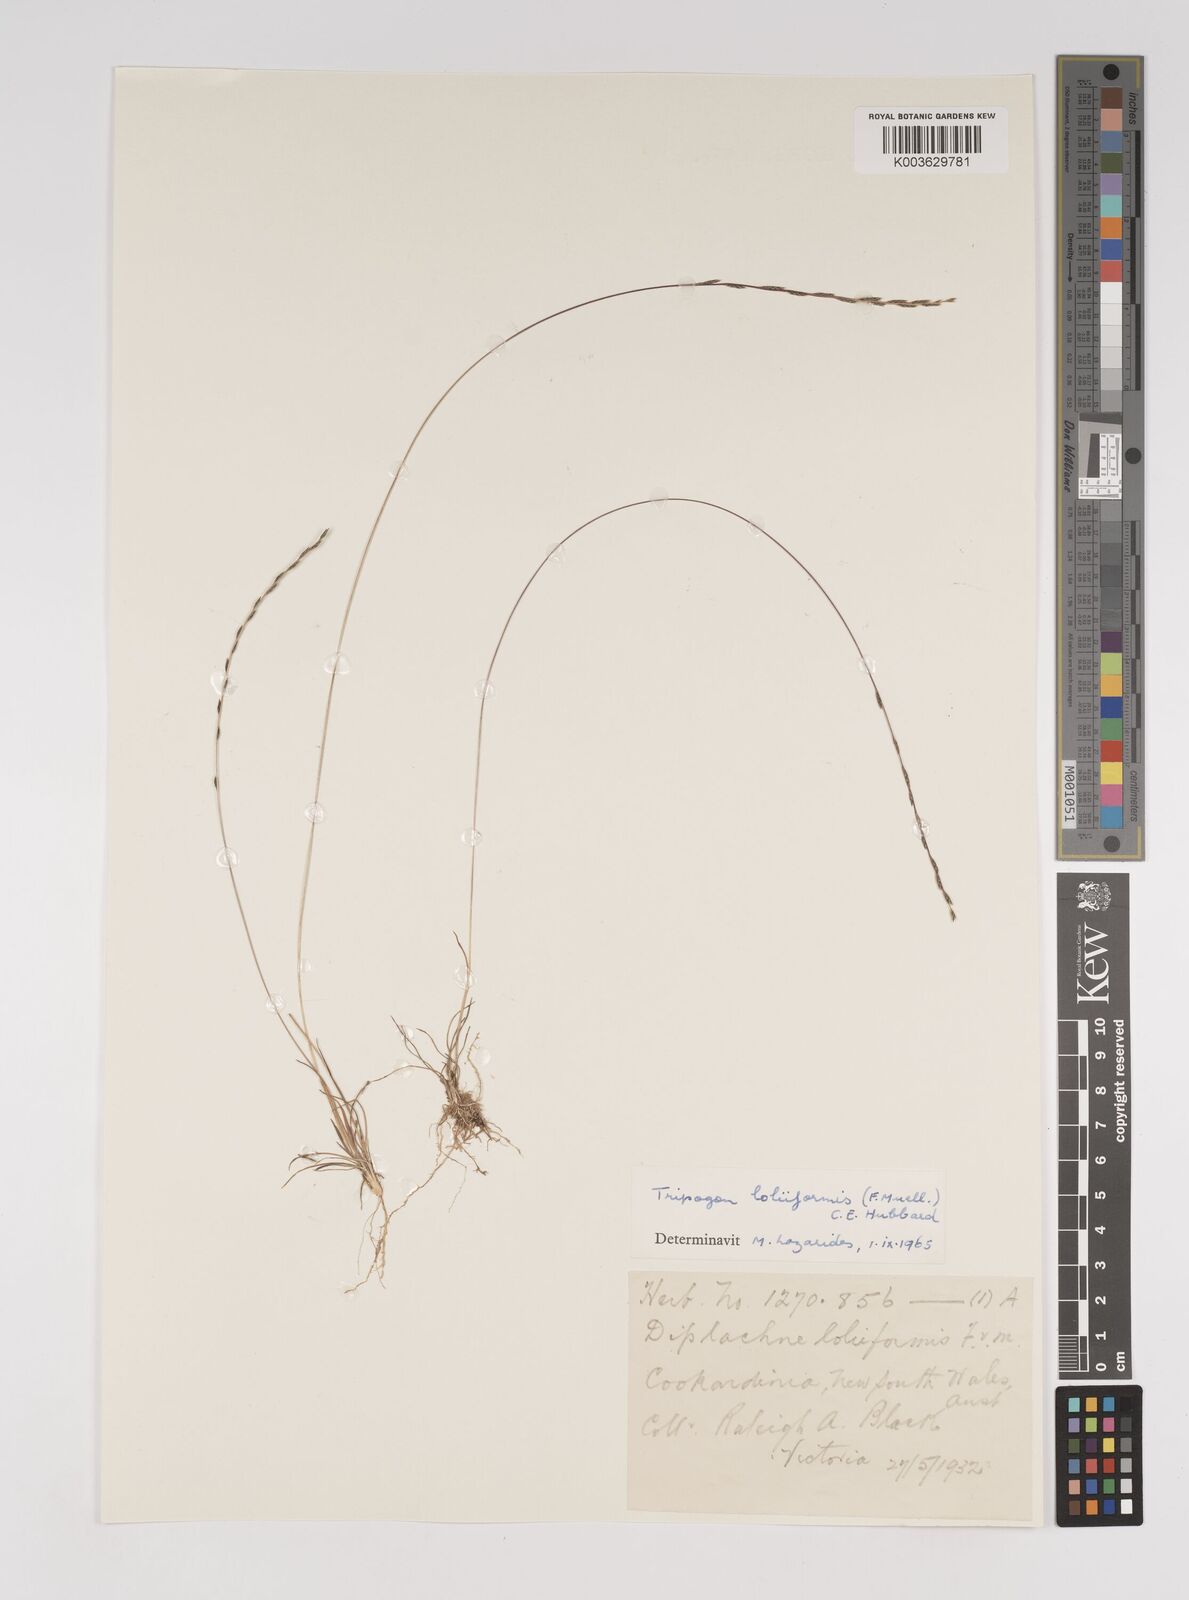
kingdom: Plantae
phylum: Tracheophyta
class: Liliopsida
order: Poales
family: Poaceae
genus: Tripogonella
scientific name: Tripogonella loliiformis
